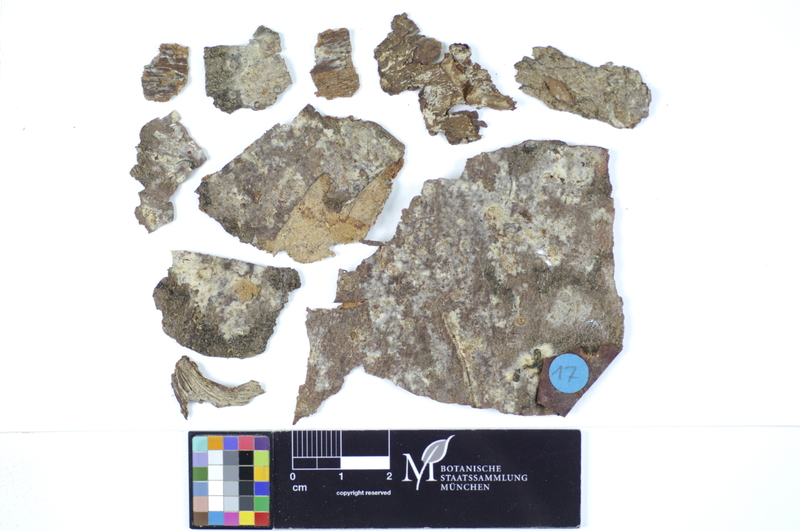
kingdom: Plantae
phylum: Tracheophyta
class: Pinopsida
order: Pinales
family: Pinaceae
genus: Picea
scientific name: Picea
